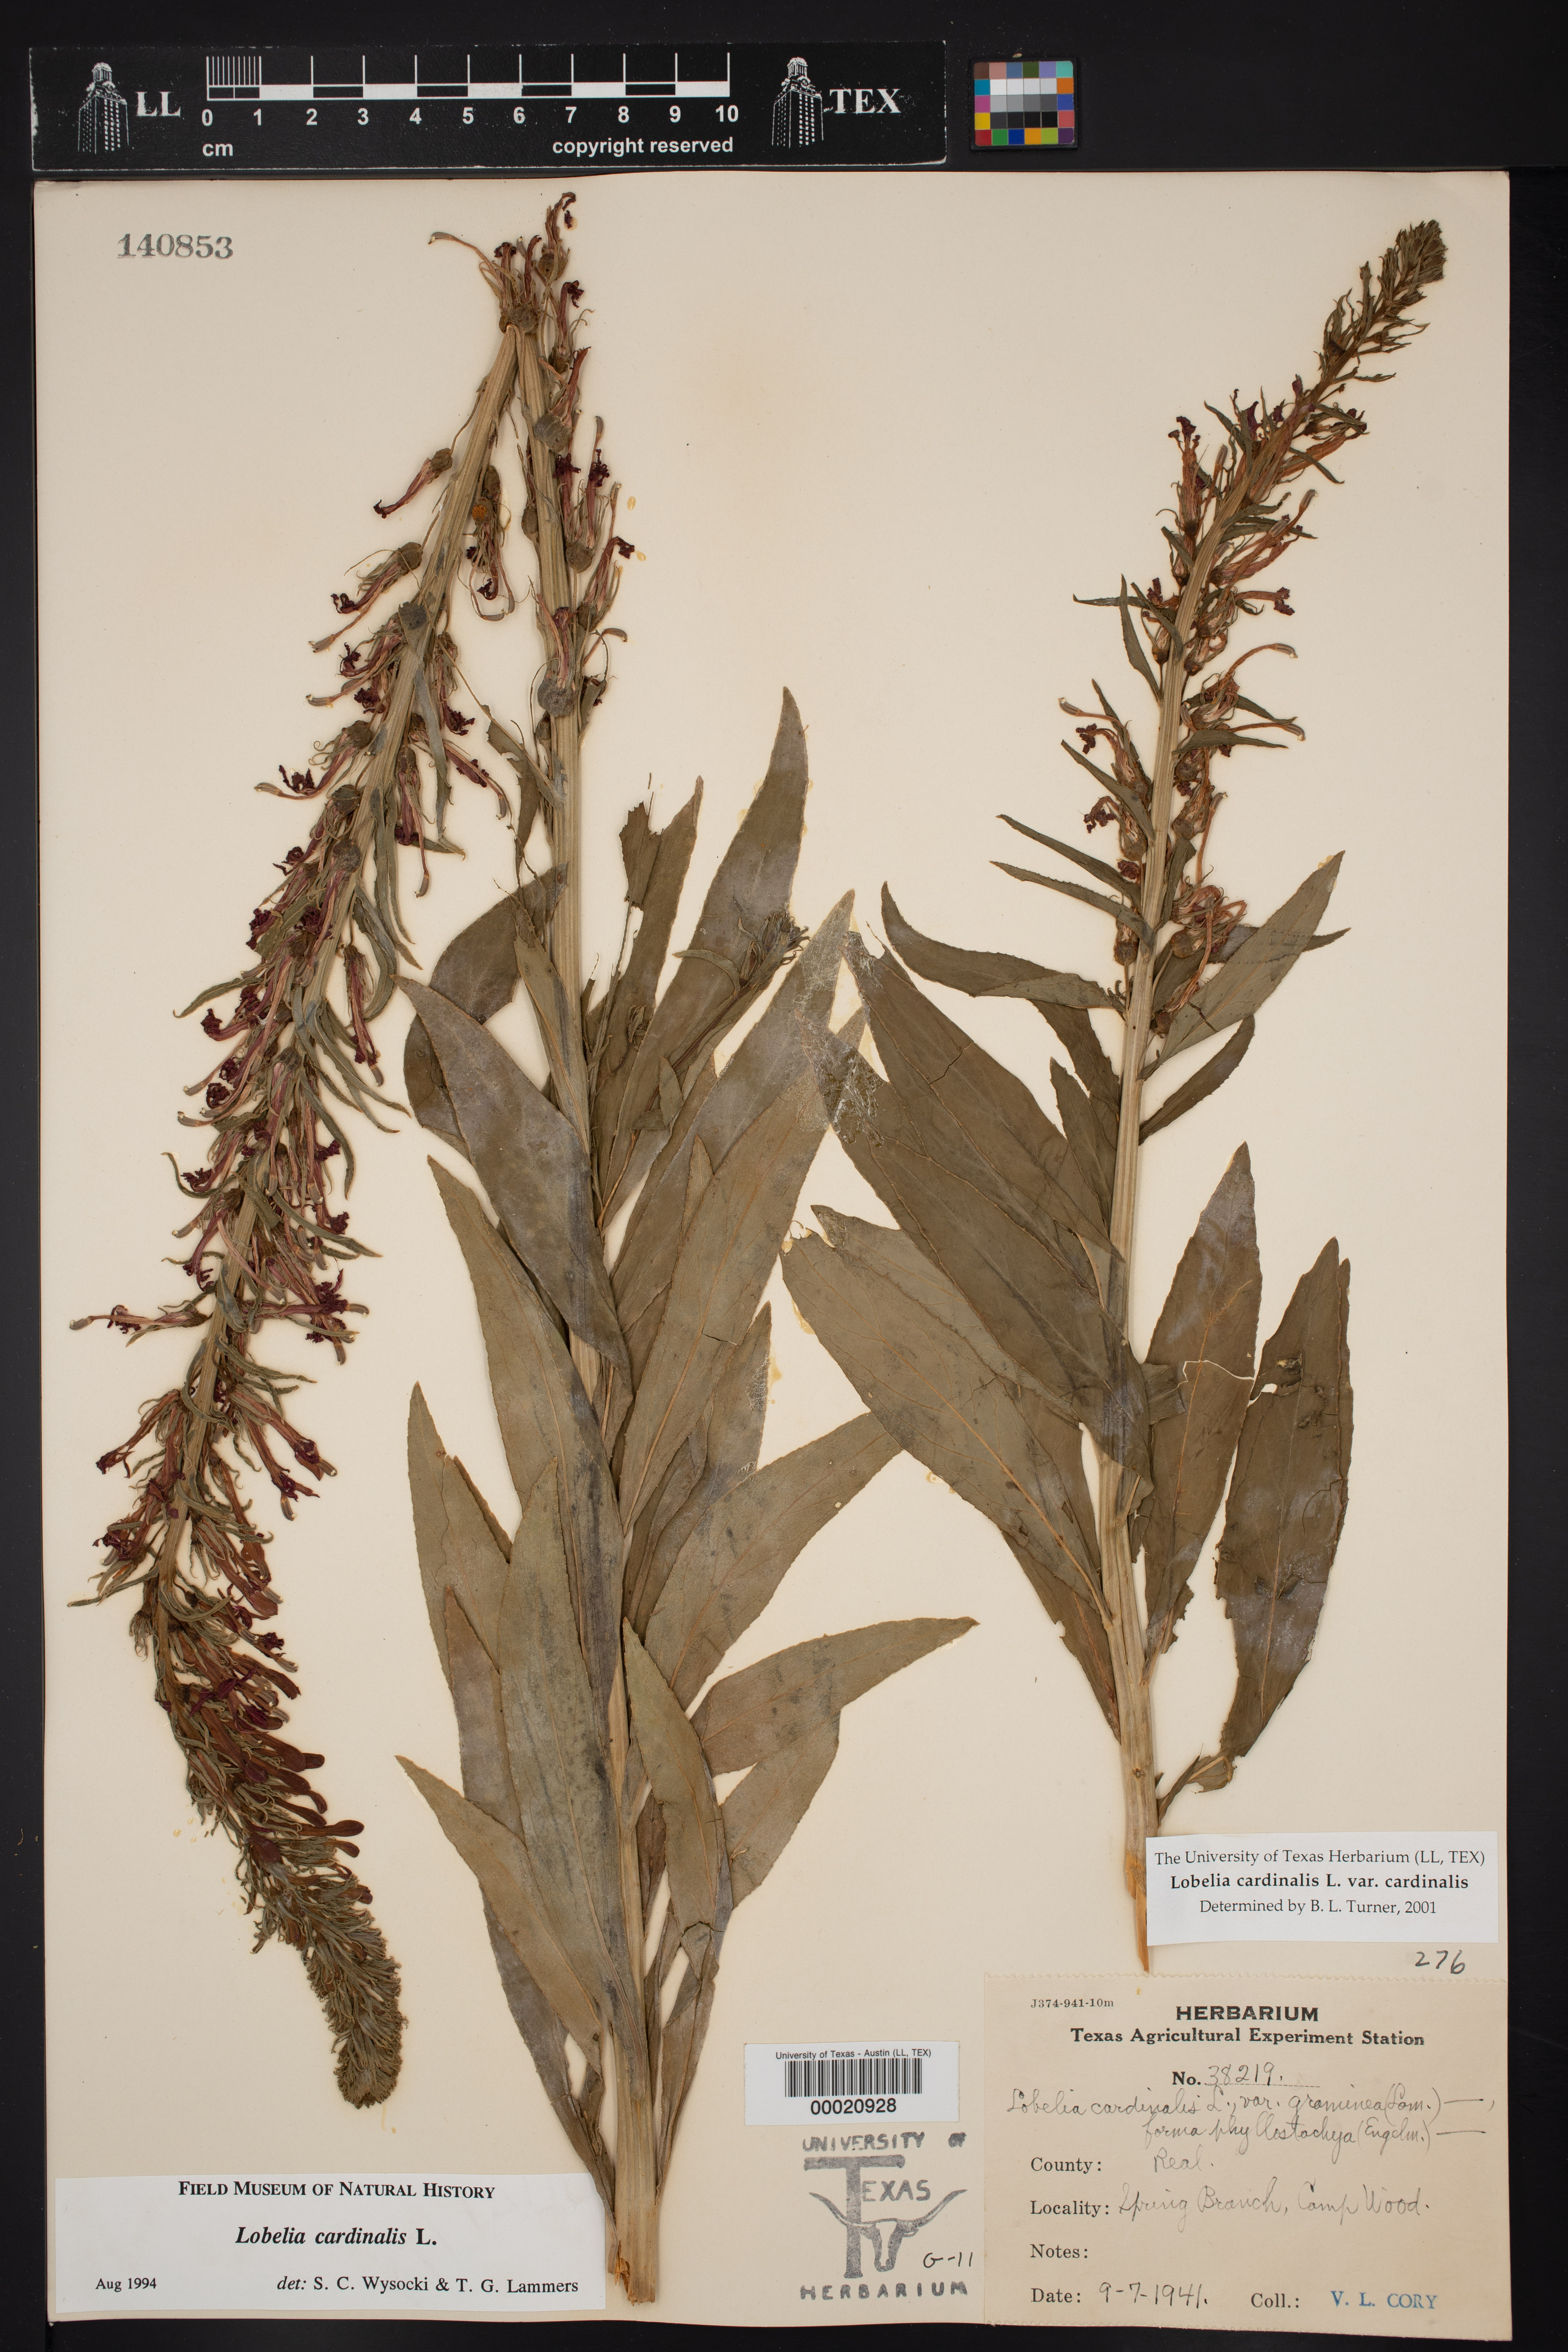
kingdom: Plantae
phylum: Tracheophyta
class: Magnoliopsida
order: Asterales
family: Campanulaceae
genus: Lobelia
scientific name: Lobelia cardinalis
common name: Cardinal flower
